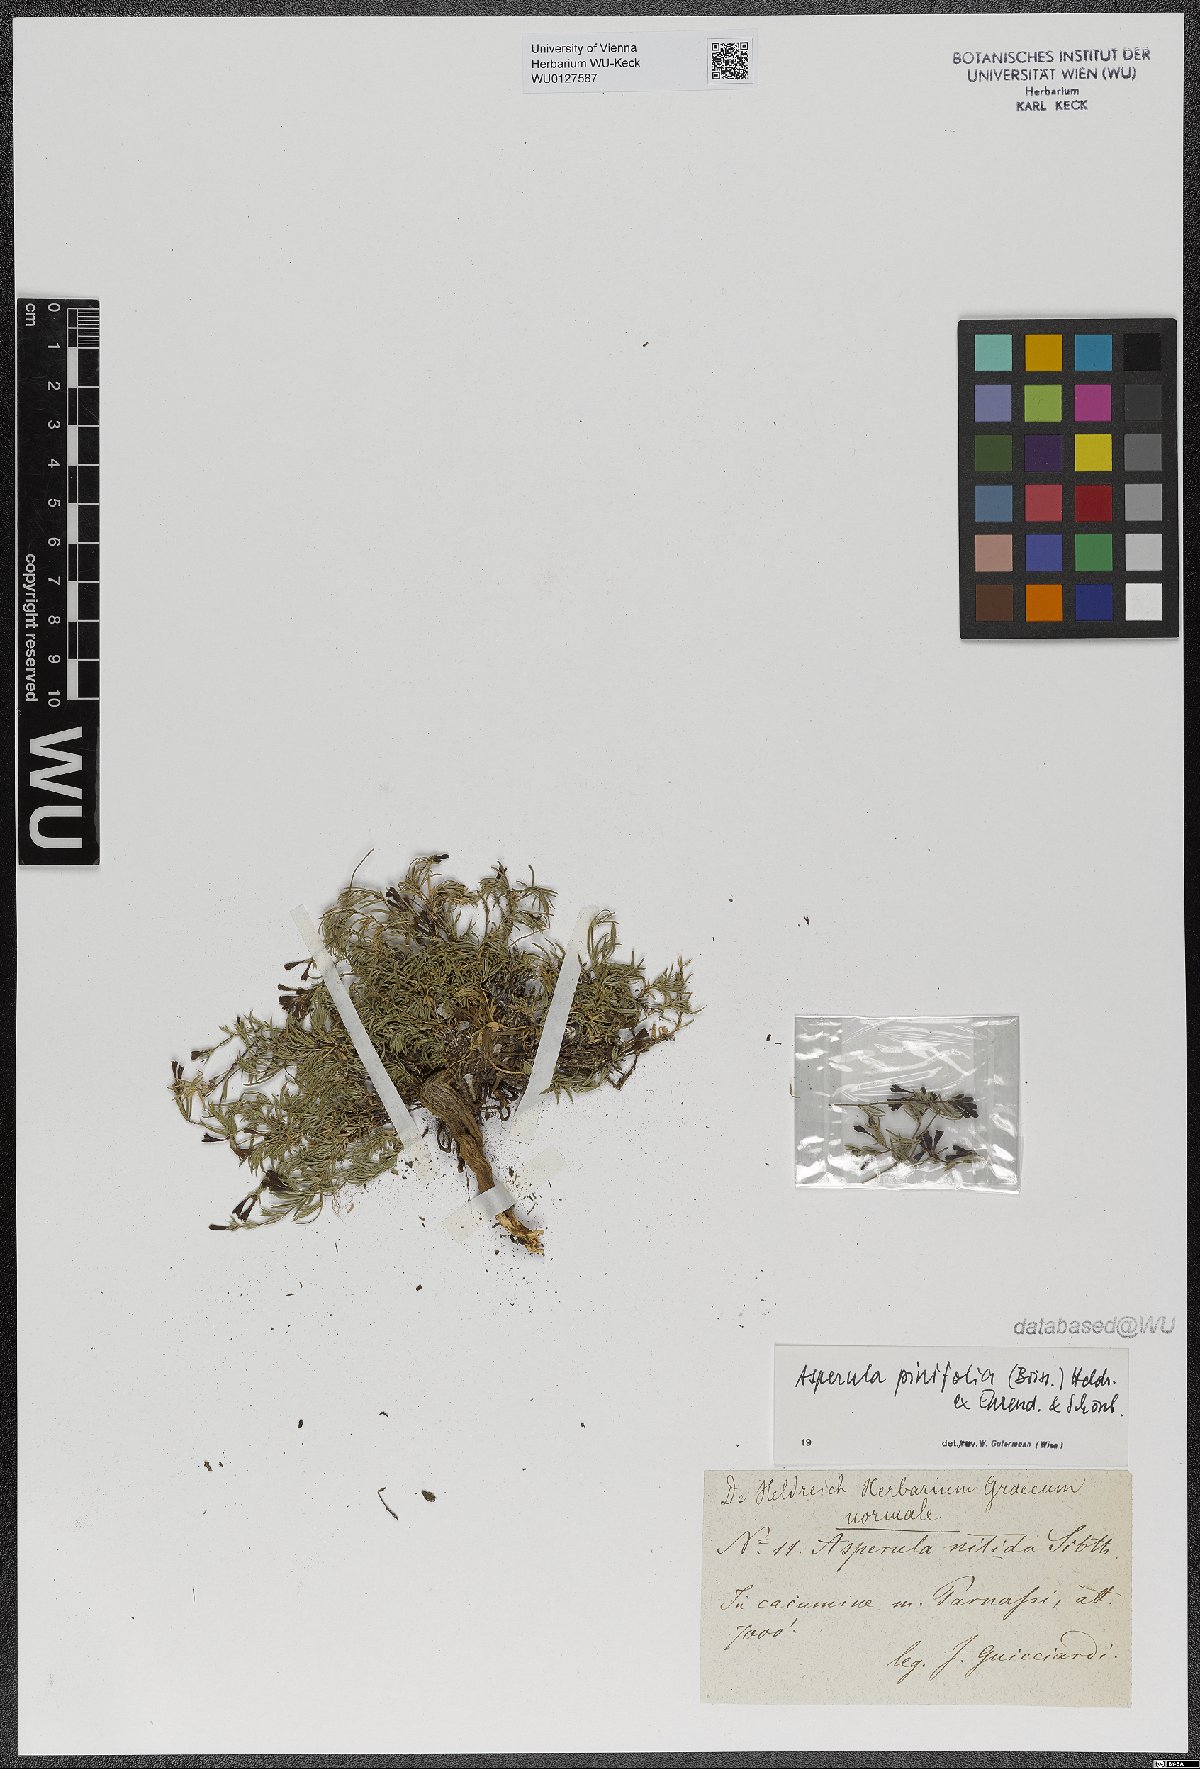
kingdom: Plantae
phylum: Tracheophyta
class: Magnoliopsida
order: Gentianales
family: Rubiaceae
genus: Cynanchica
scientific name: Cynanchica pinifolia
